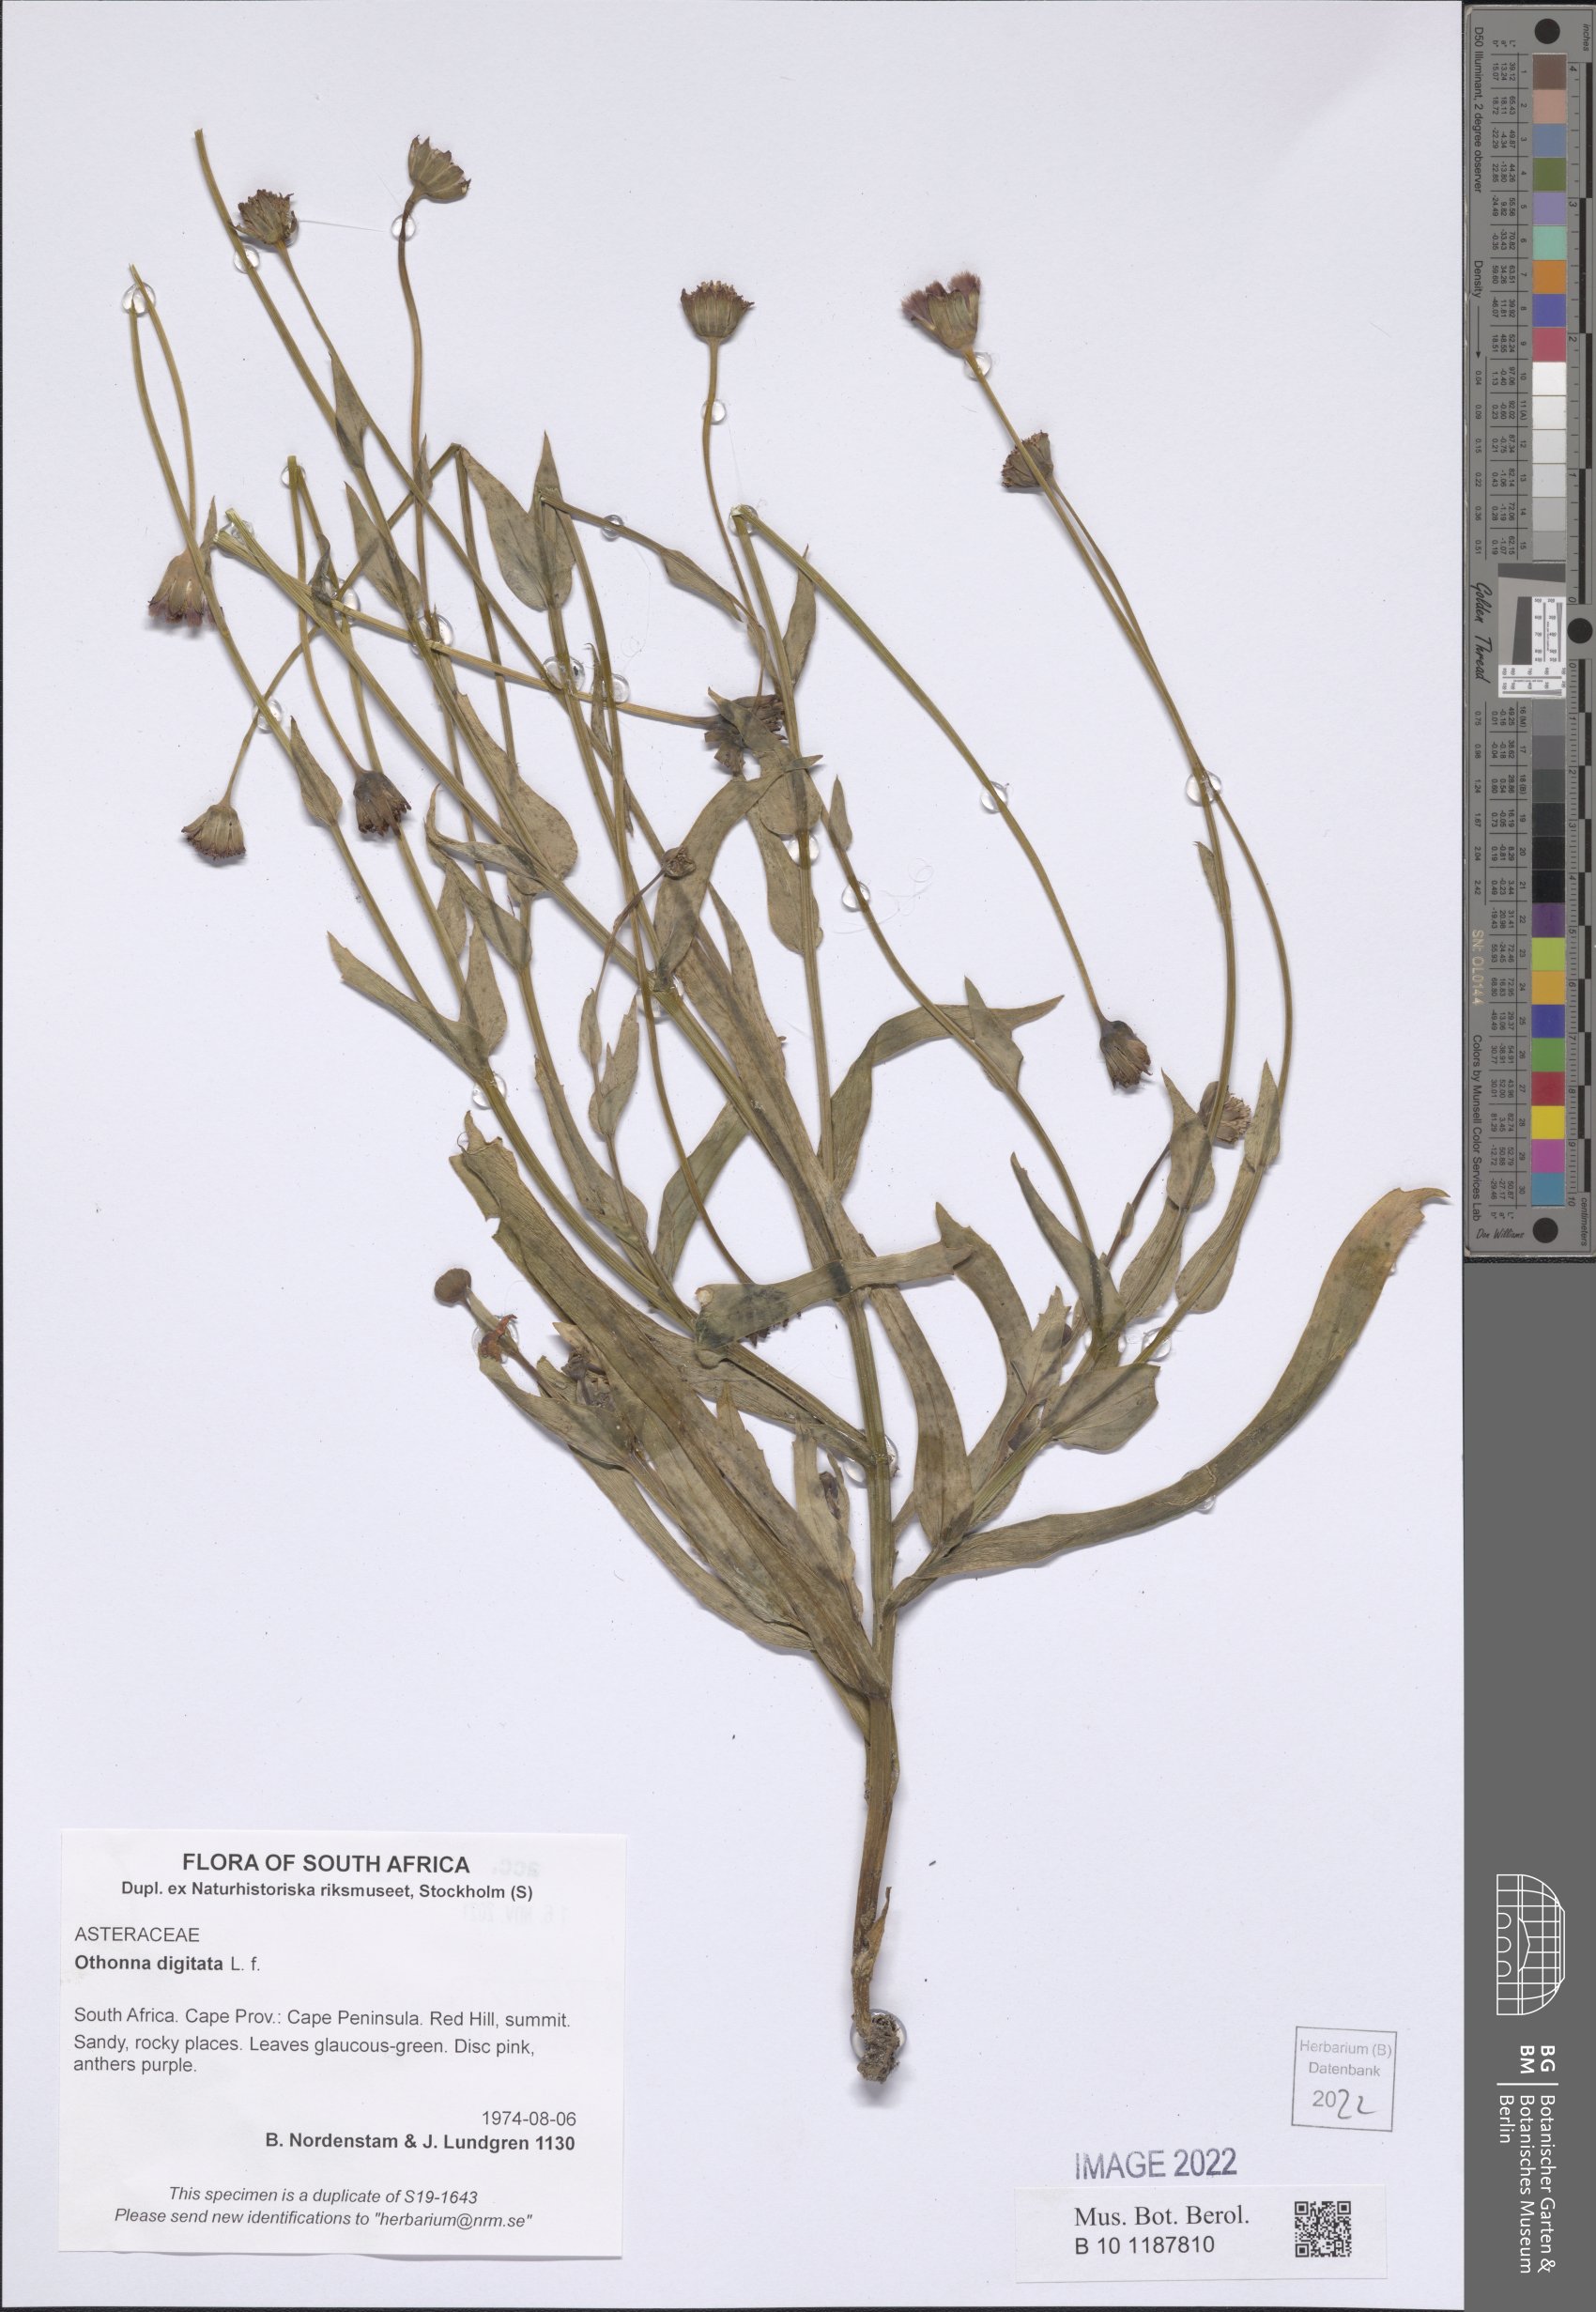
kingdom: Plantae
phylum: Tracheophyta
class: Magnoliopsida
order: Asterales
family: Asteraceae
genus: Othonna
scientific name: Othonna digitata
